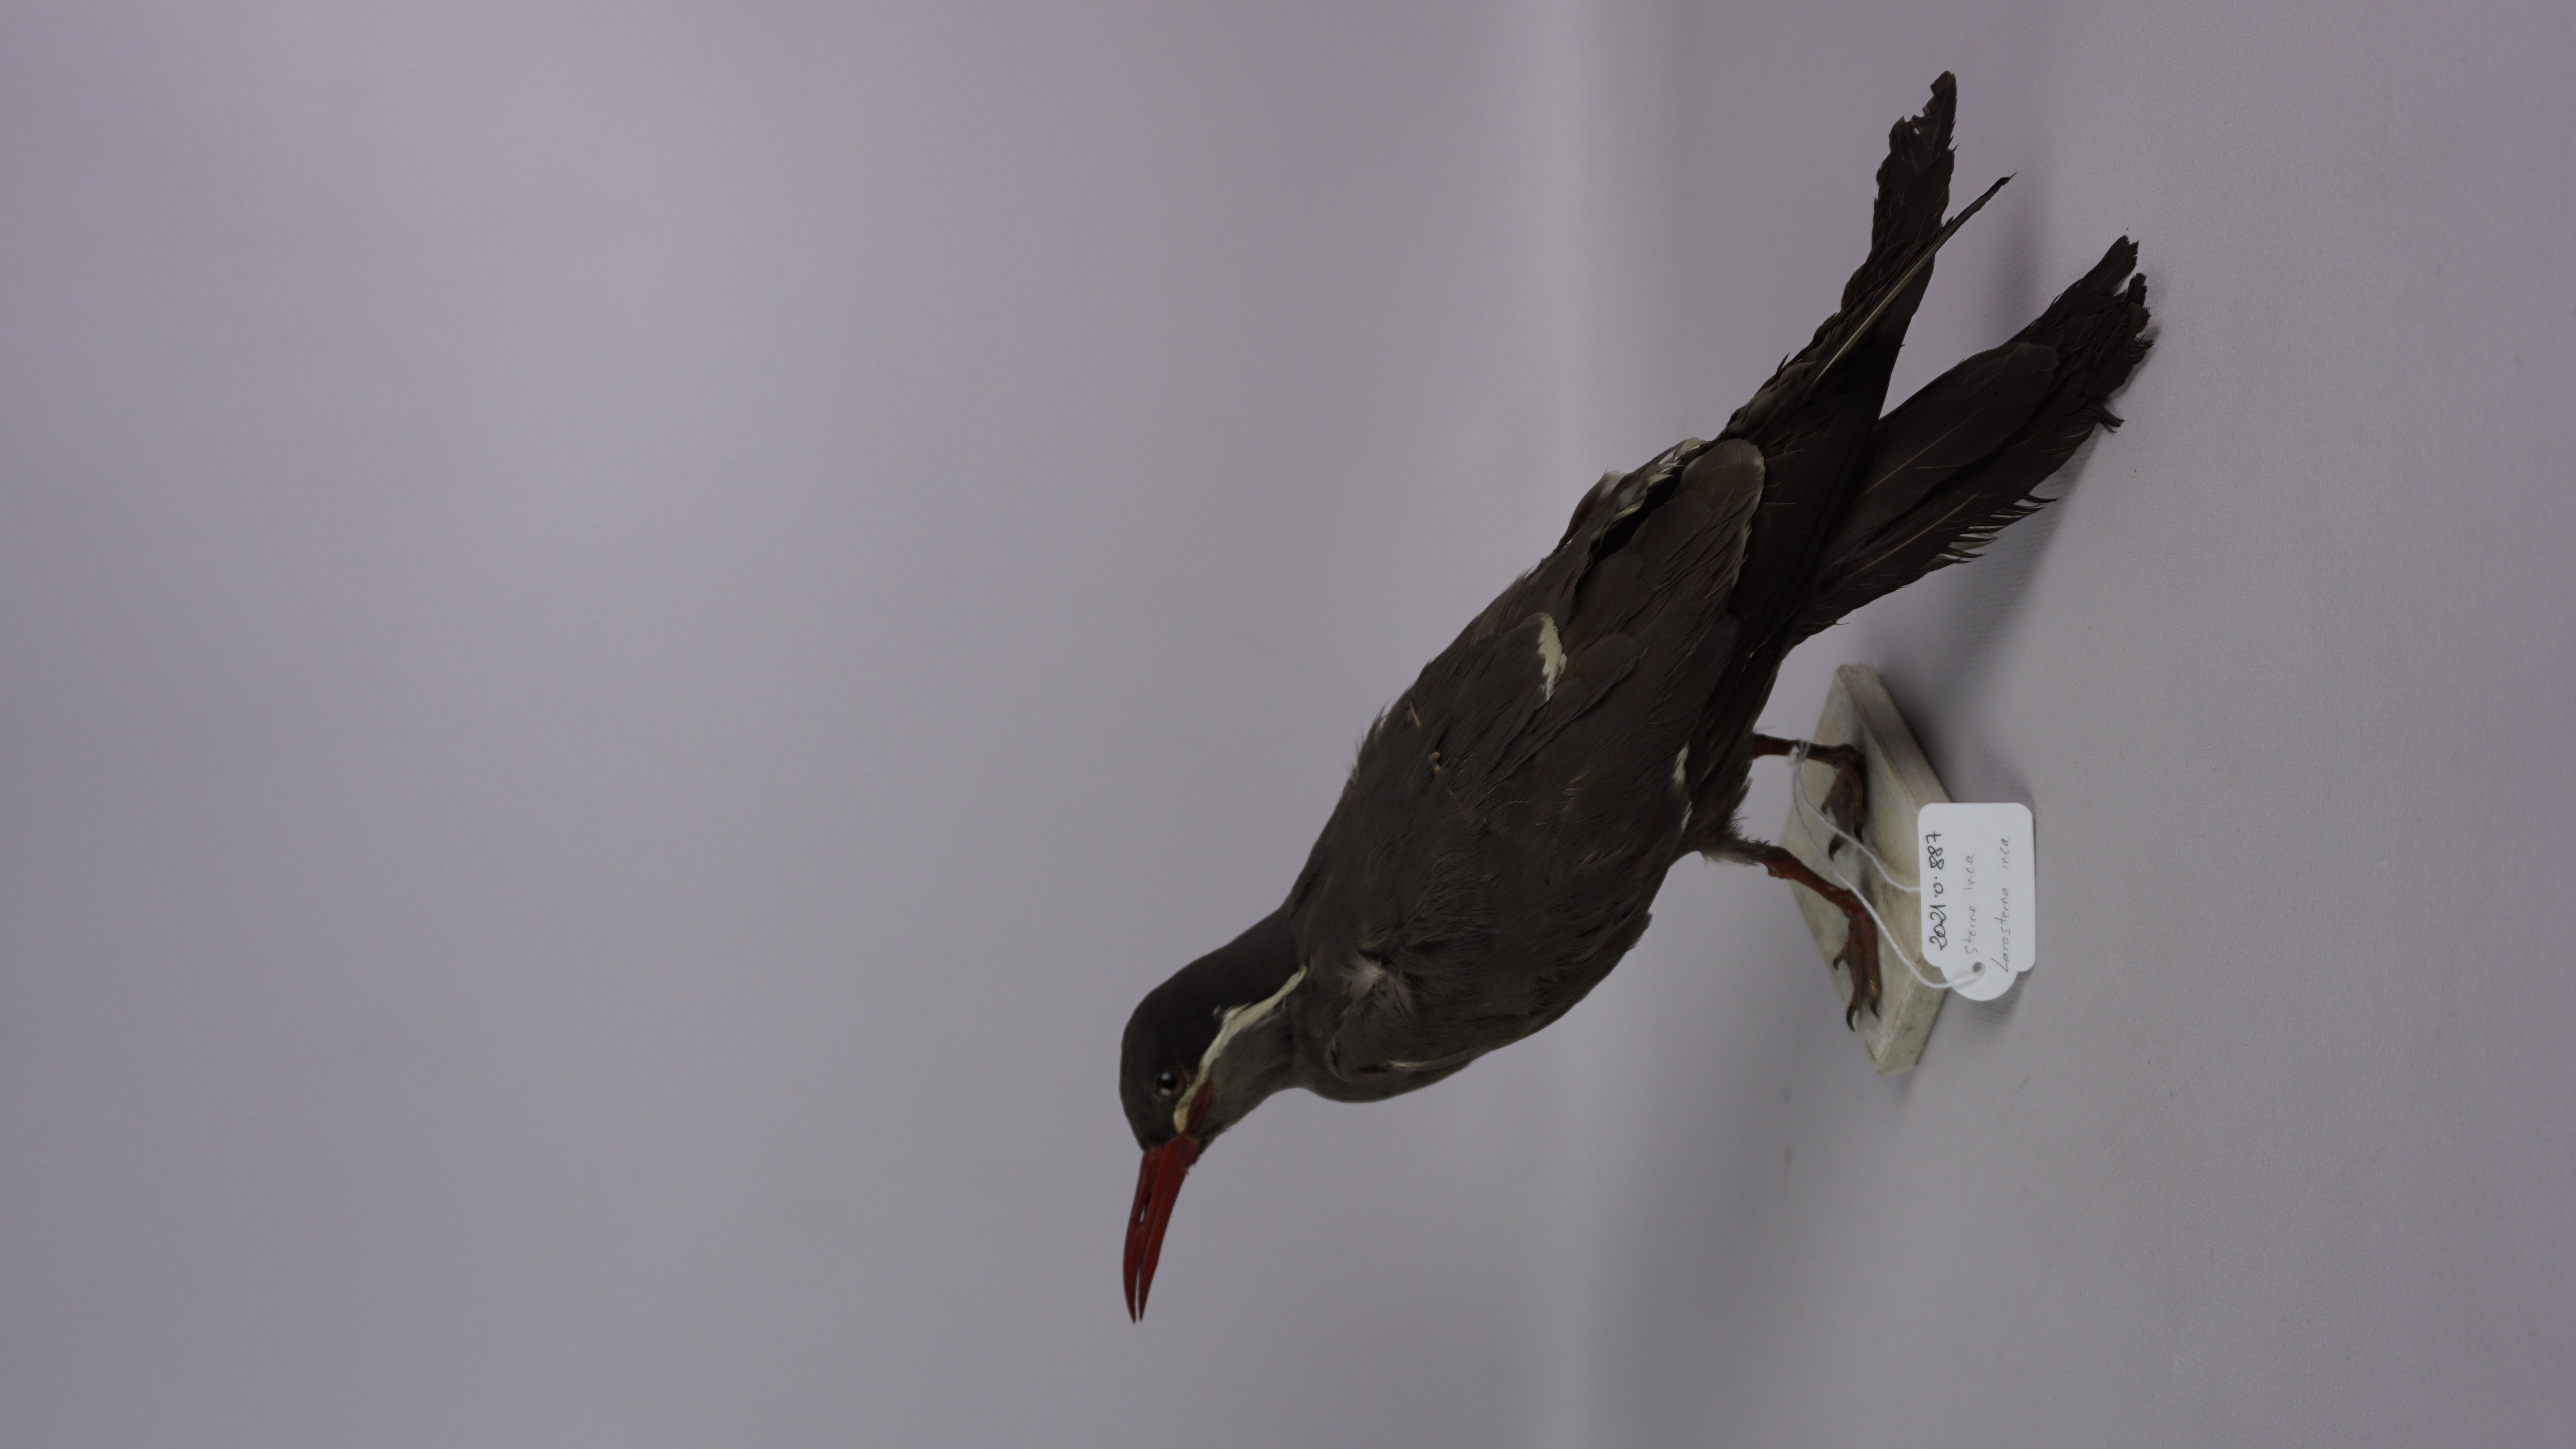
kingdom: Animalia
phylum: Chordata
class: Aves
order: Charadriiformes
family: Laridae
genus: Larosterna
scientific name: Larosterna inca
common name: Inca tern
